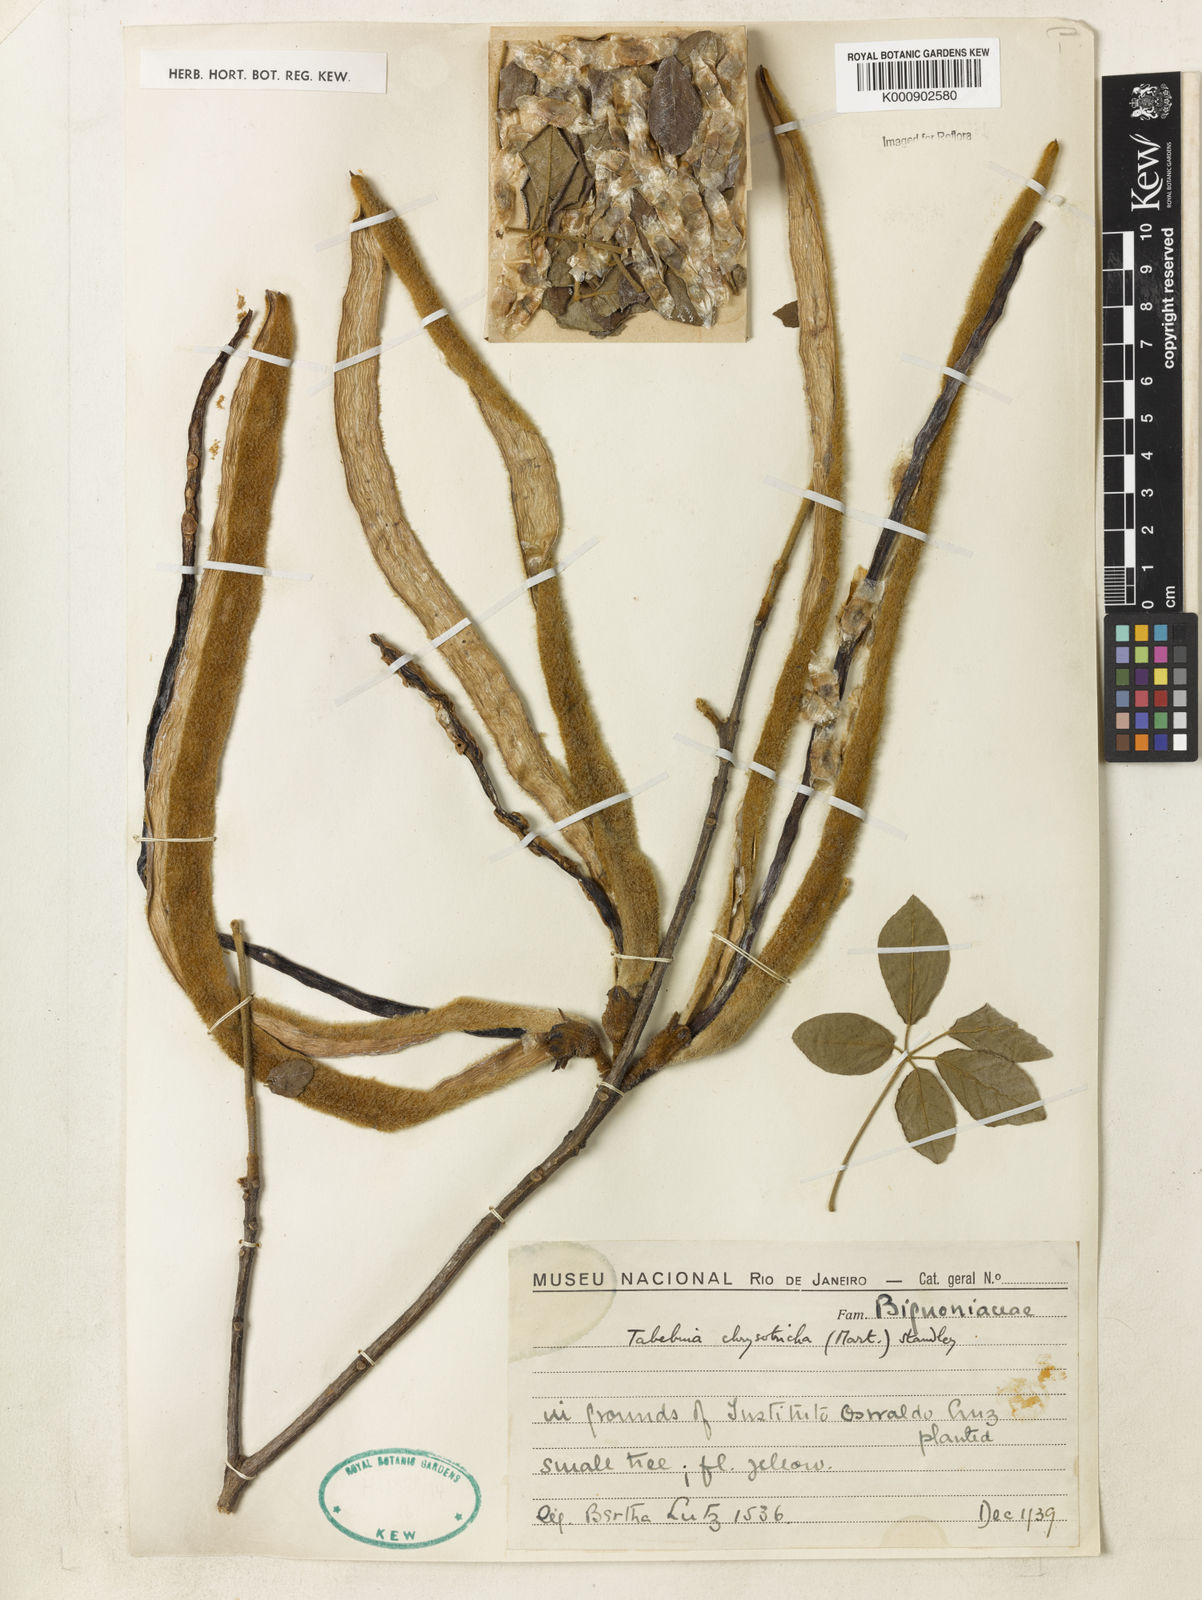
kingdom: Plantae
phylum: Tracheophyta
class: Magnoliopsida
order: Lamiales
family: Bignoniaceae
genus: Handroanthus
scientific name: Handroanthus chrysotrichus
